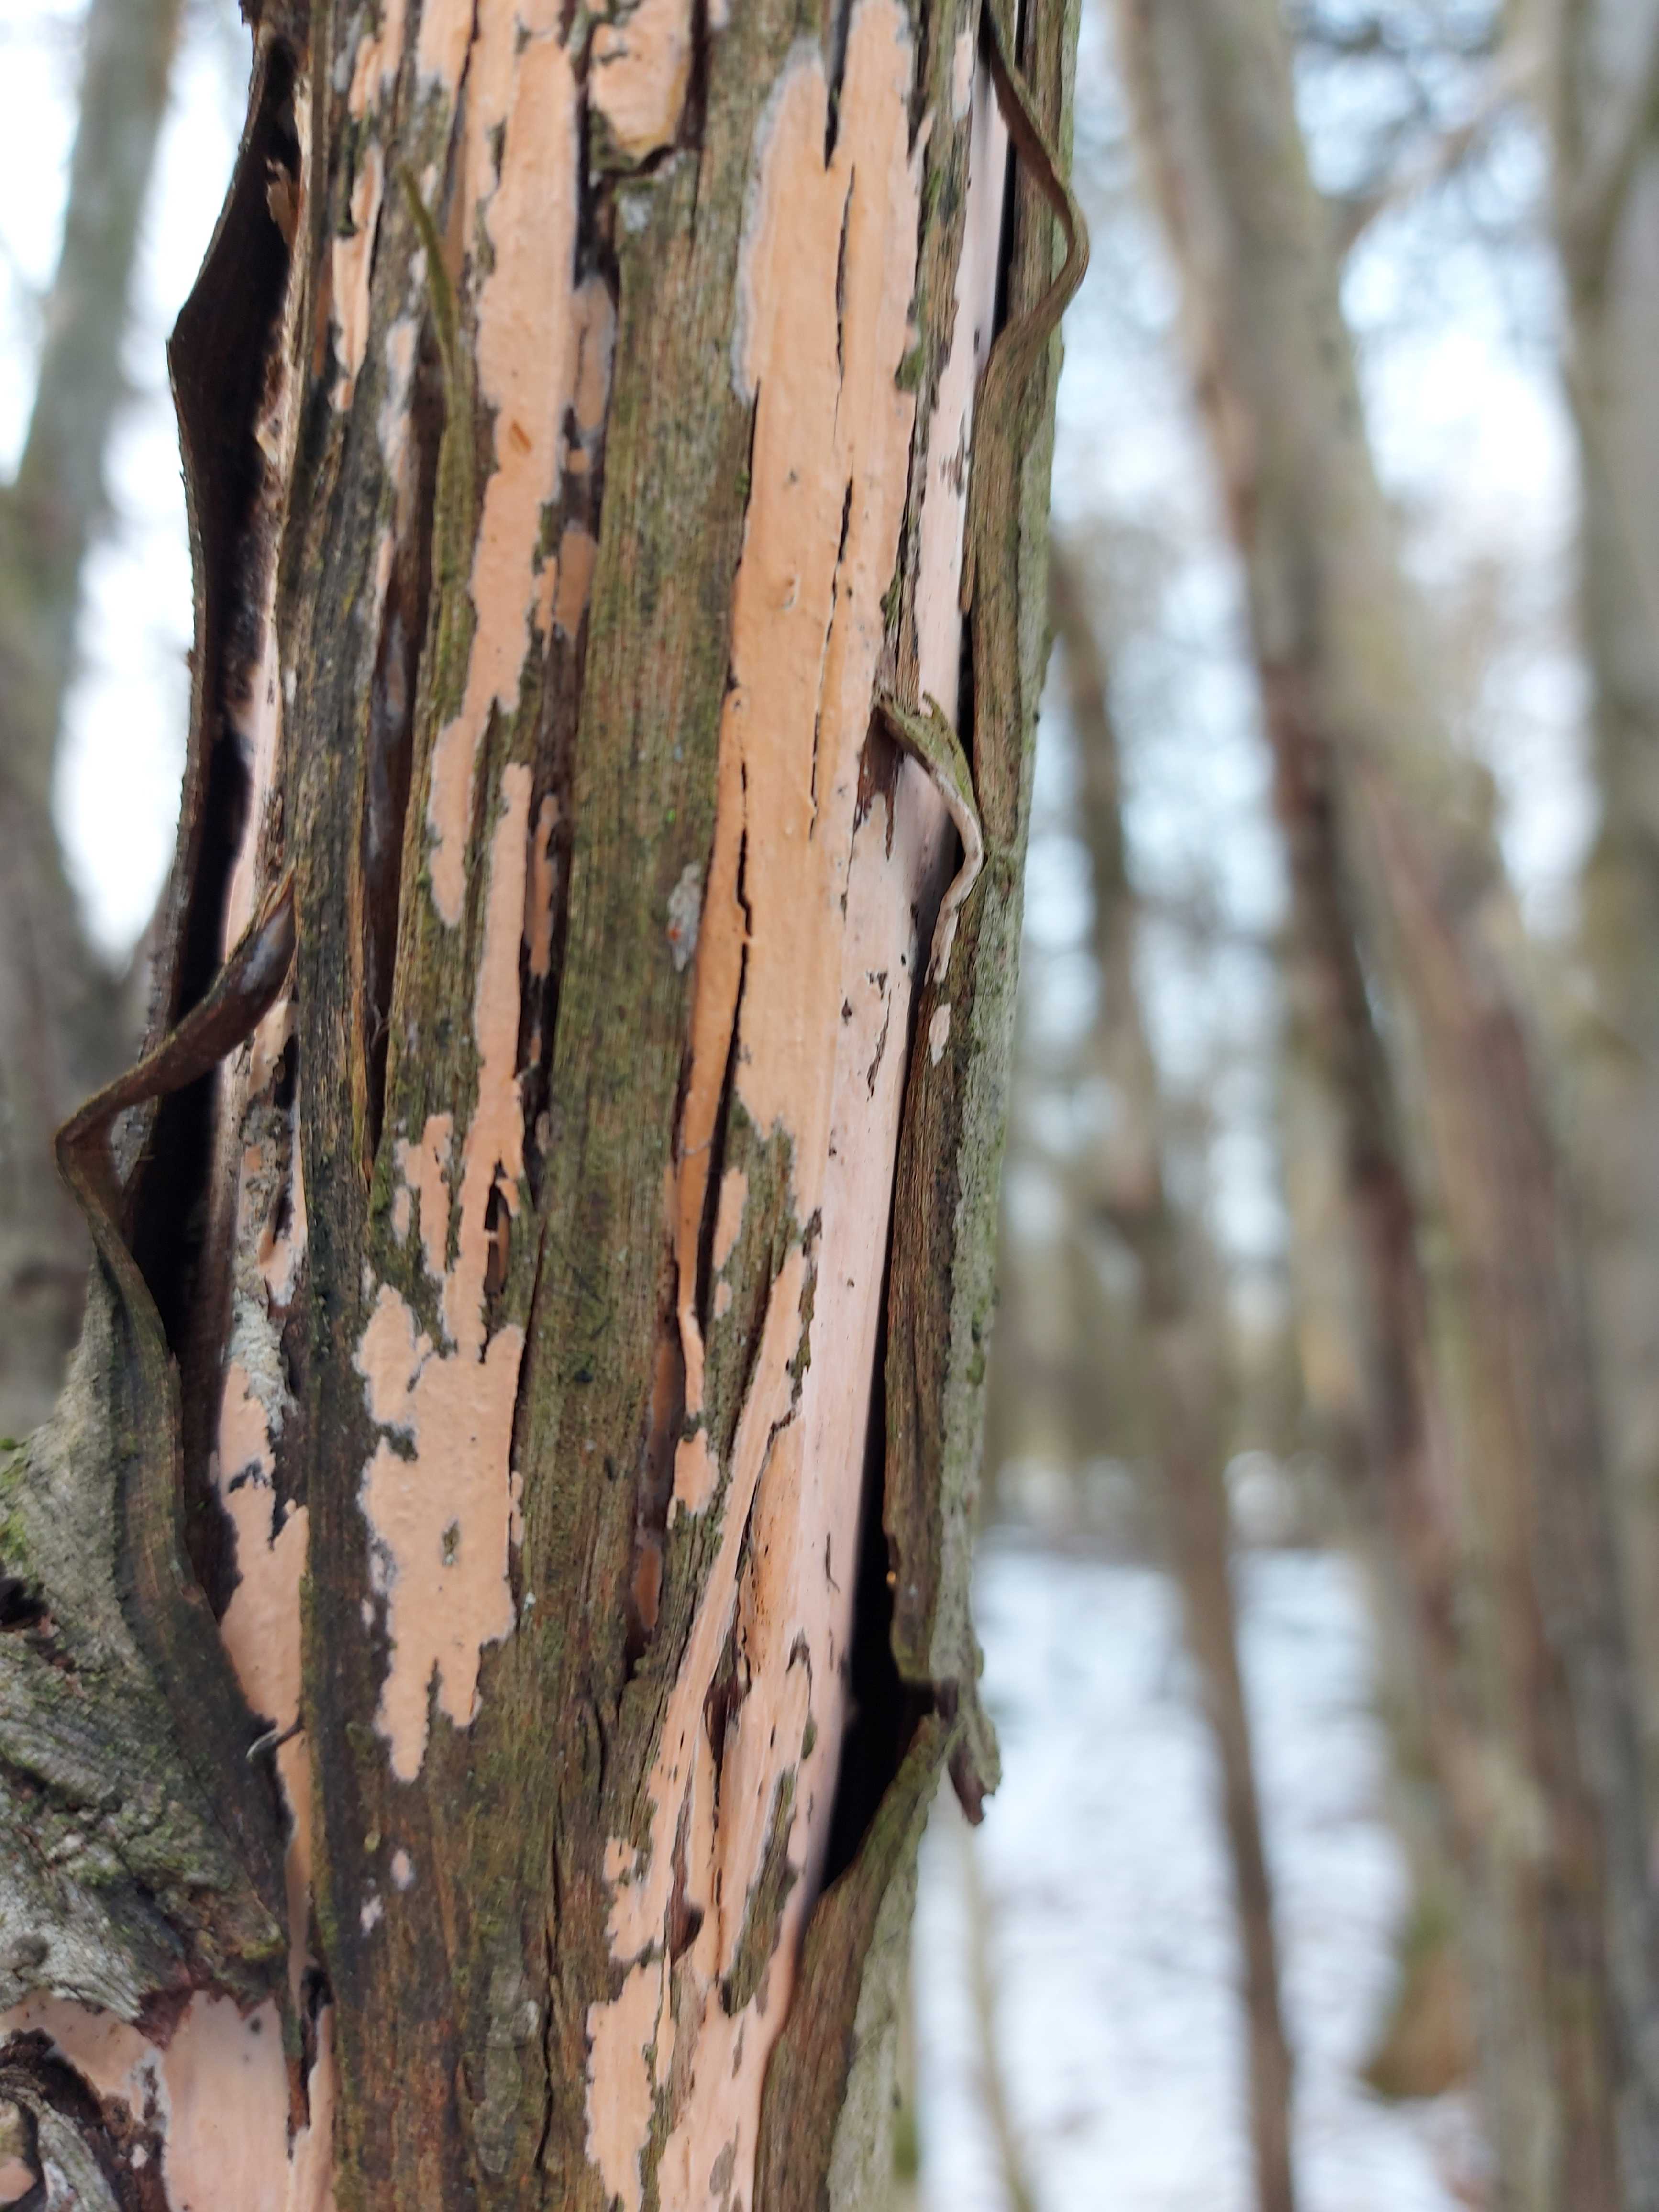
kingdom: Fungi
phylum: Basidiomycota
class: Agaricomycetes
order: Russulales
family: Peniophoraceae
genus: Peniophora
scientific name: Peniophora incarnata
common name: laksefarvet voksskind
